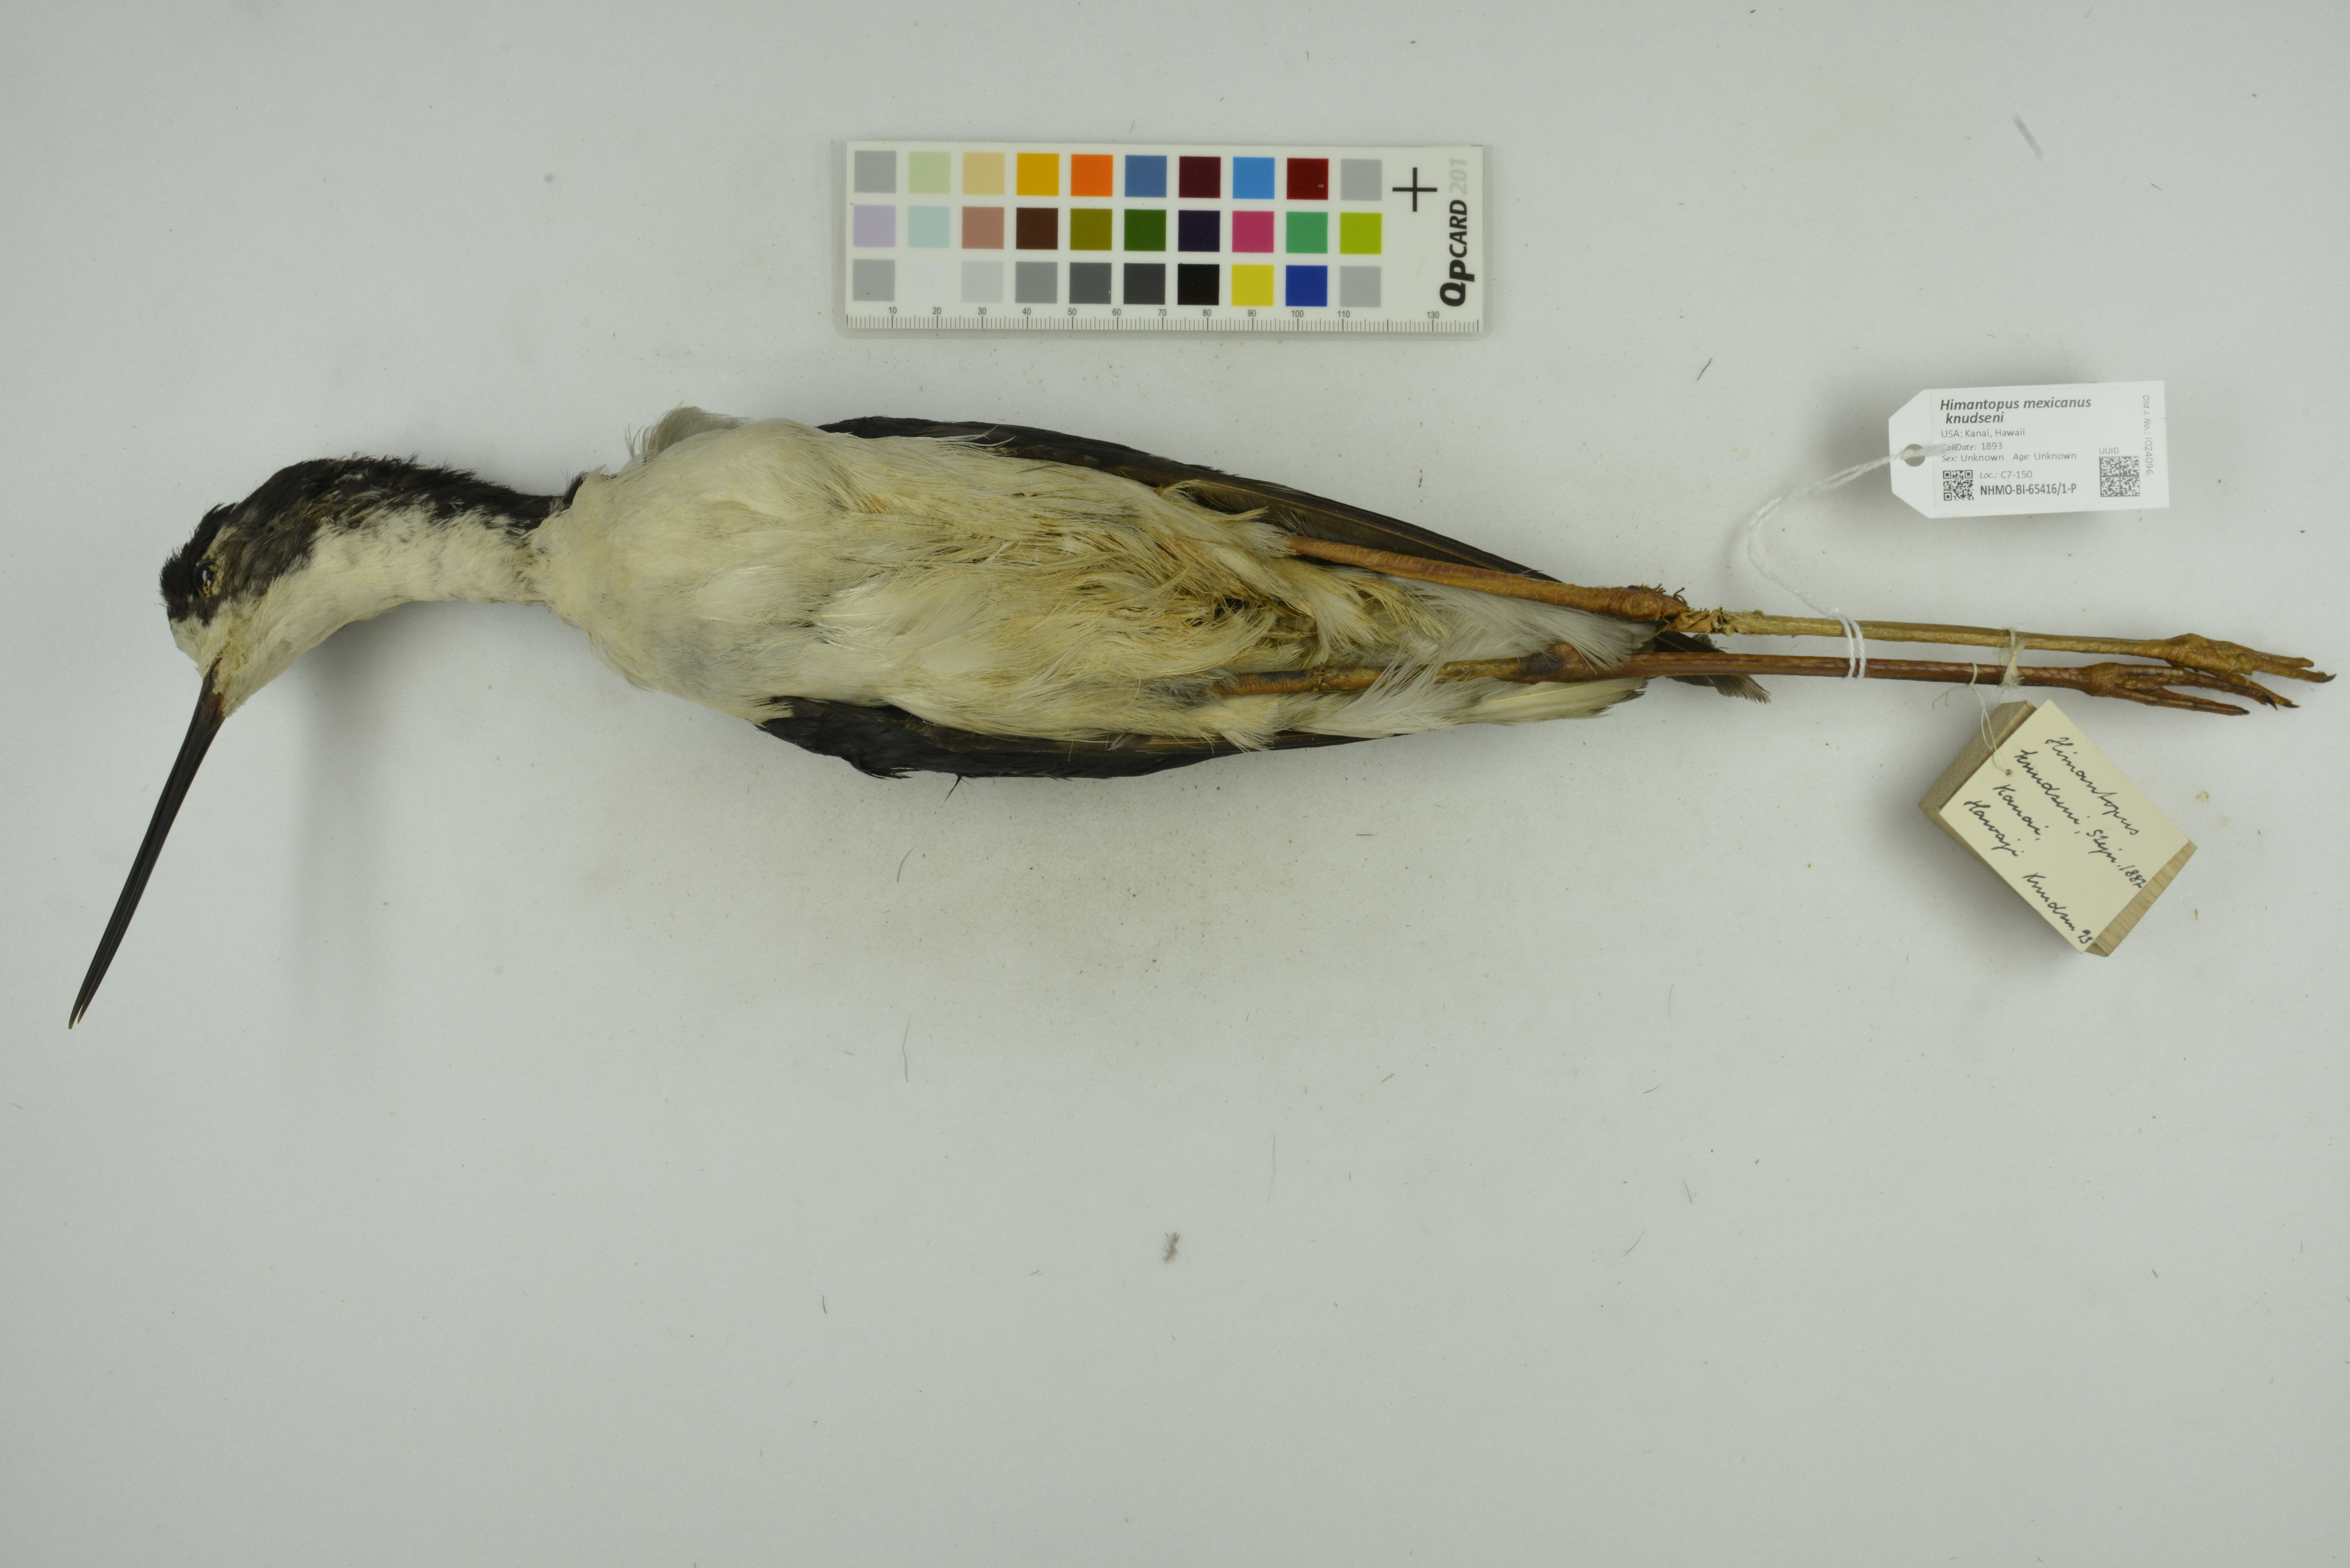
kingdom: Animalia
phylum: Chordata
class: Aves
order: Charadriiformes
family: Recurvirostridae
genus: Himantopus
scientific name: Himantopus mexicanus
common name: Black-necked stilt
